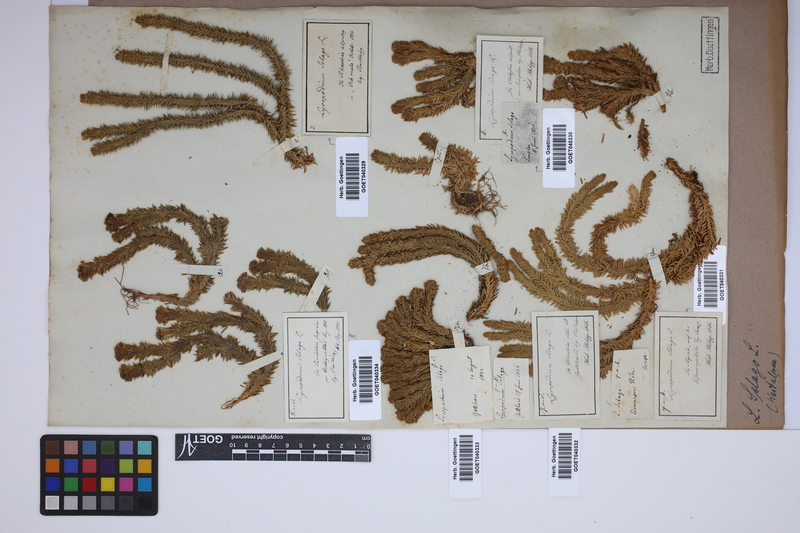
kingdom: Plantae
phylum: Tracheophyta
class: Lycopodiopsida
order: Lycopodiales
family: Lycopodiaceae
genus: Huperzia
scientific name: Huperzia selago
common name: Northern firmoss
